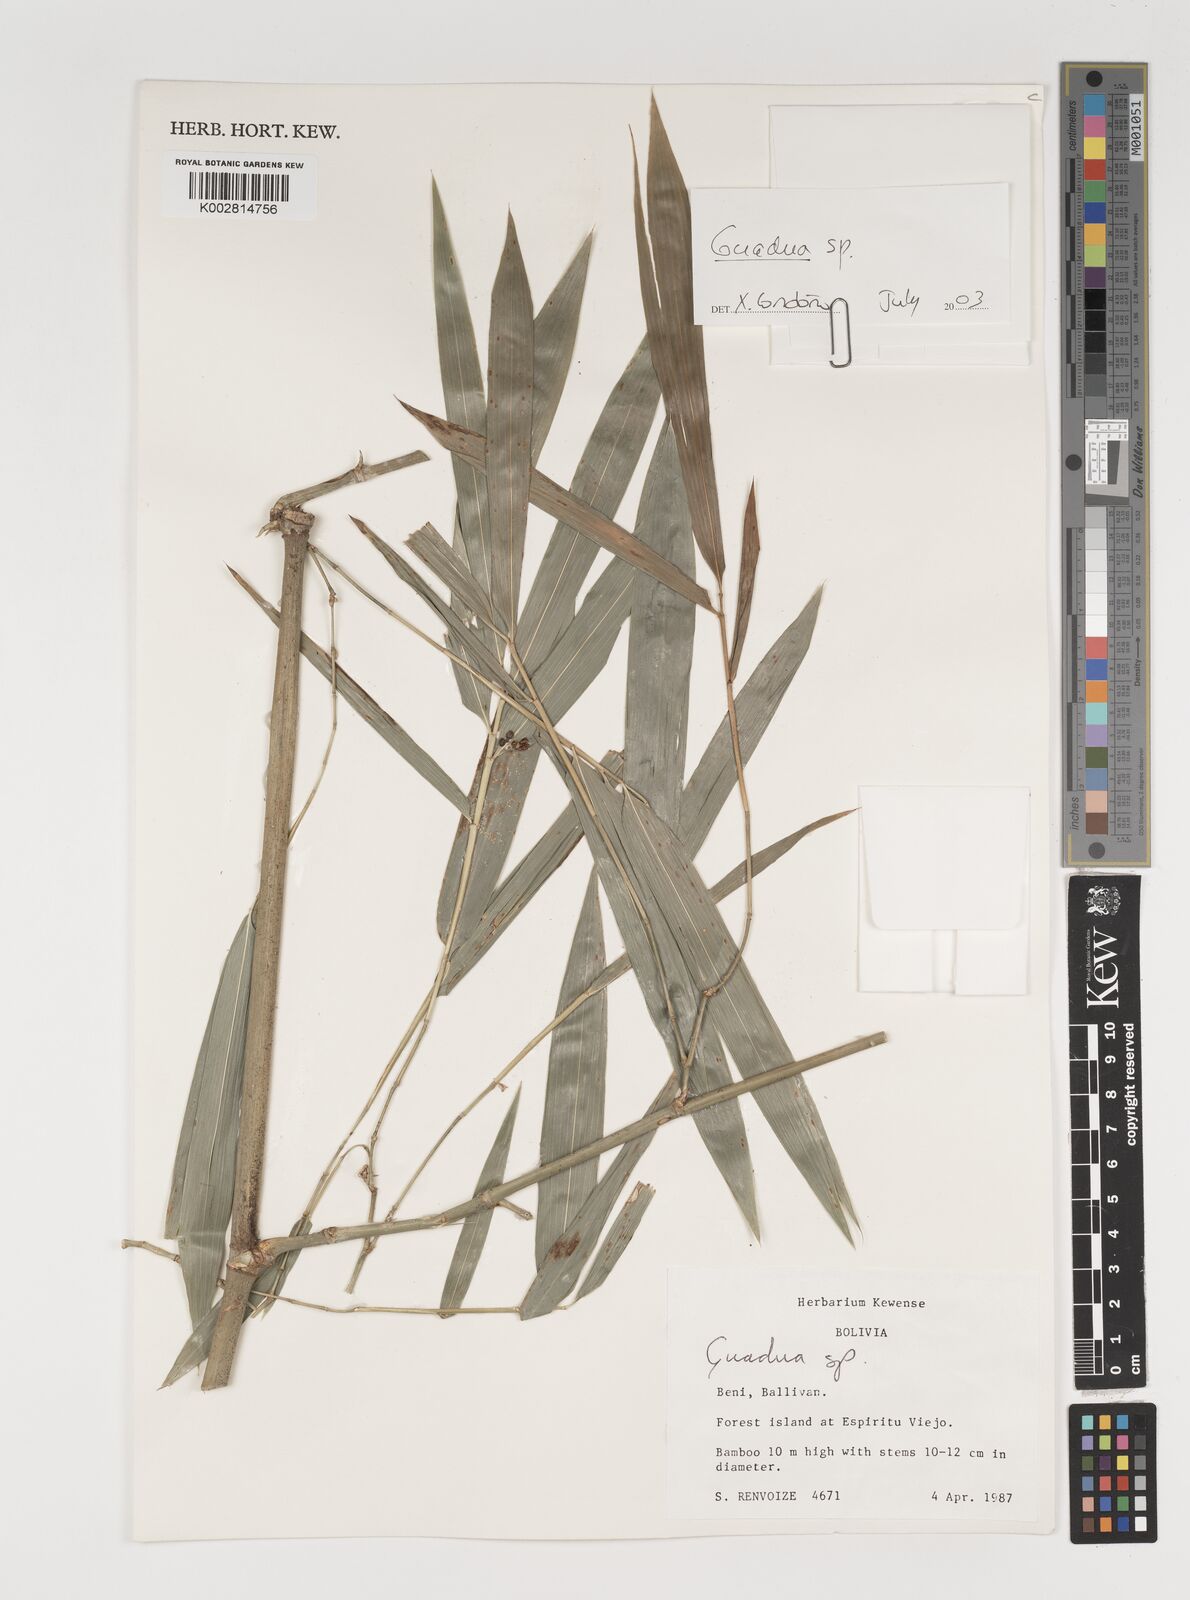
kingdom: Plantae
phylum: Tracheophyta
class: Liliopsida
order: Poales
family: Poaceae
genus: Guadua
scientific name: Guadua
